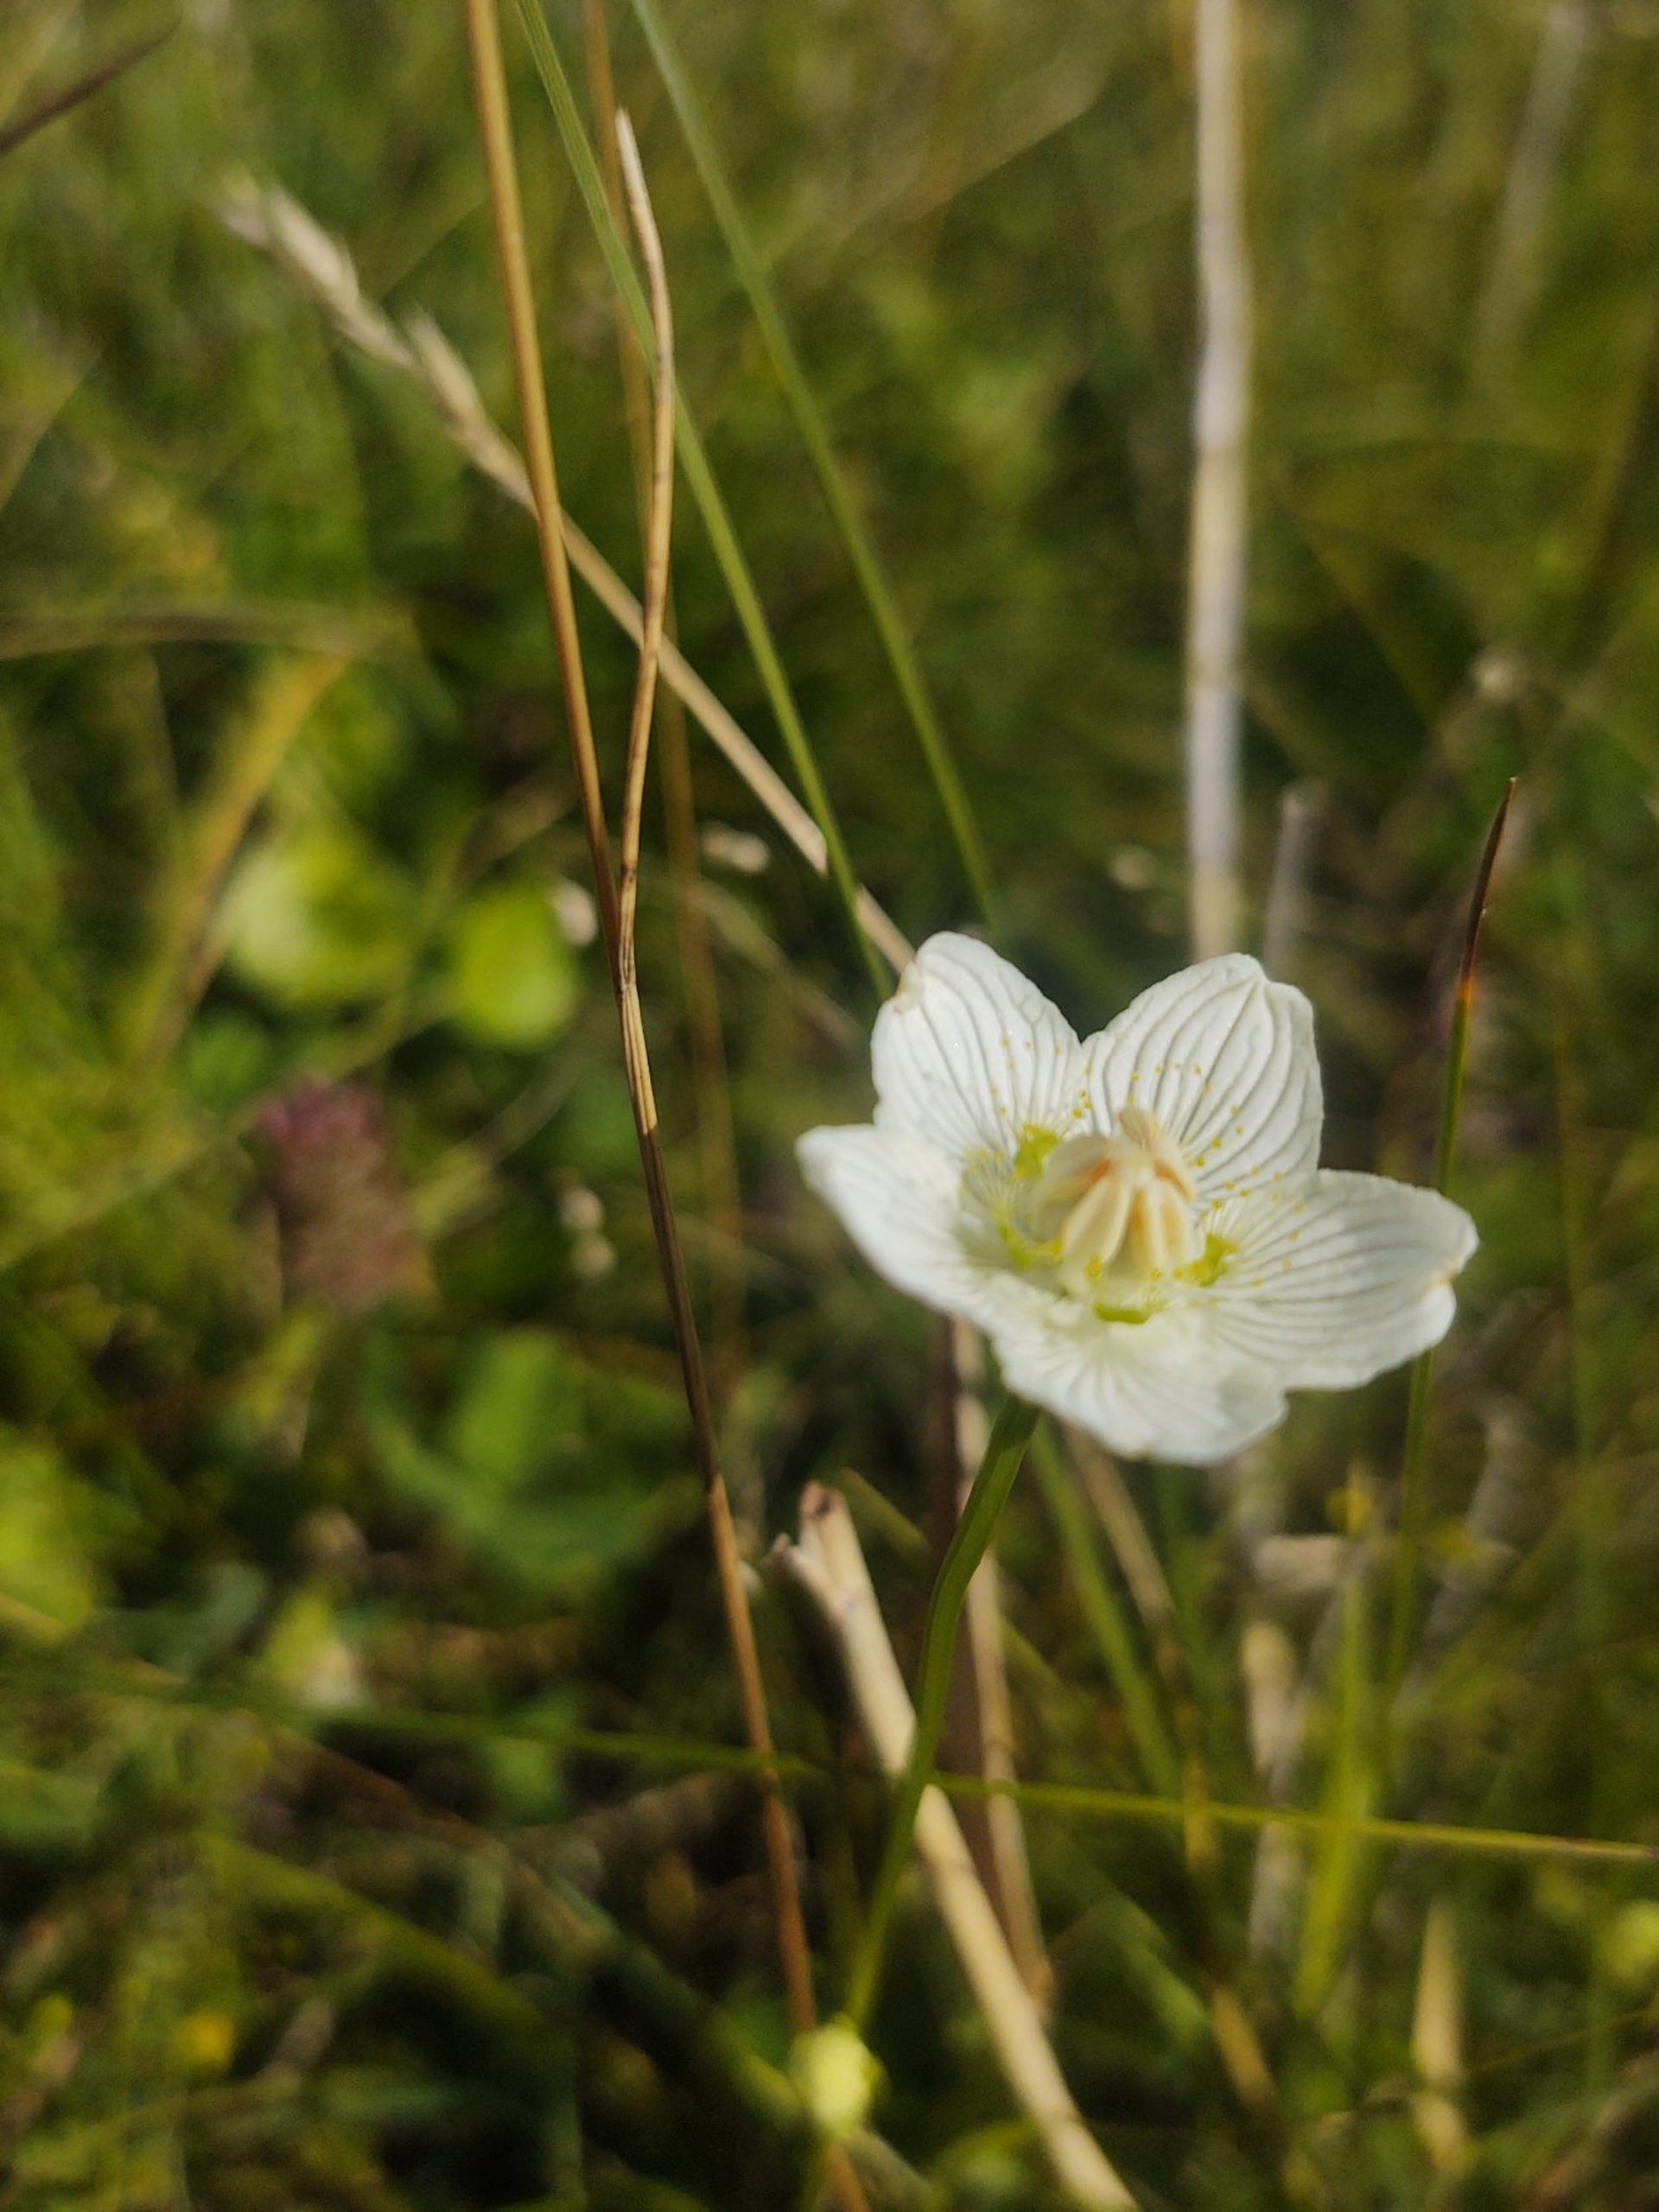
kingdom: Plantae
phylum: Tracheophyta
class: Magnoliopsida
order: Celastrales
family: Parnassiaceae
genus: Parnassia
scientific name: Parnassia palustris
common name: Leverurt
